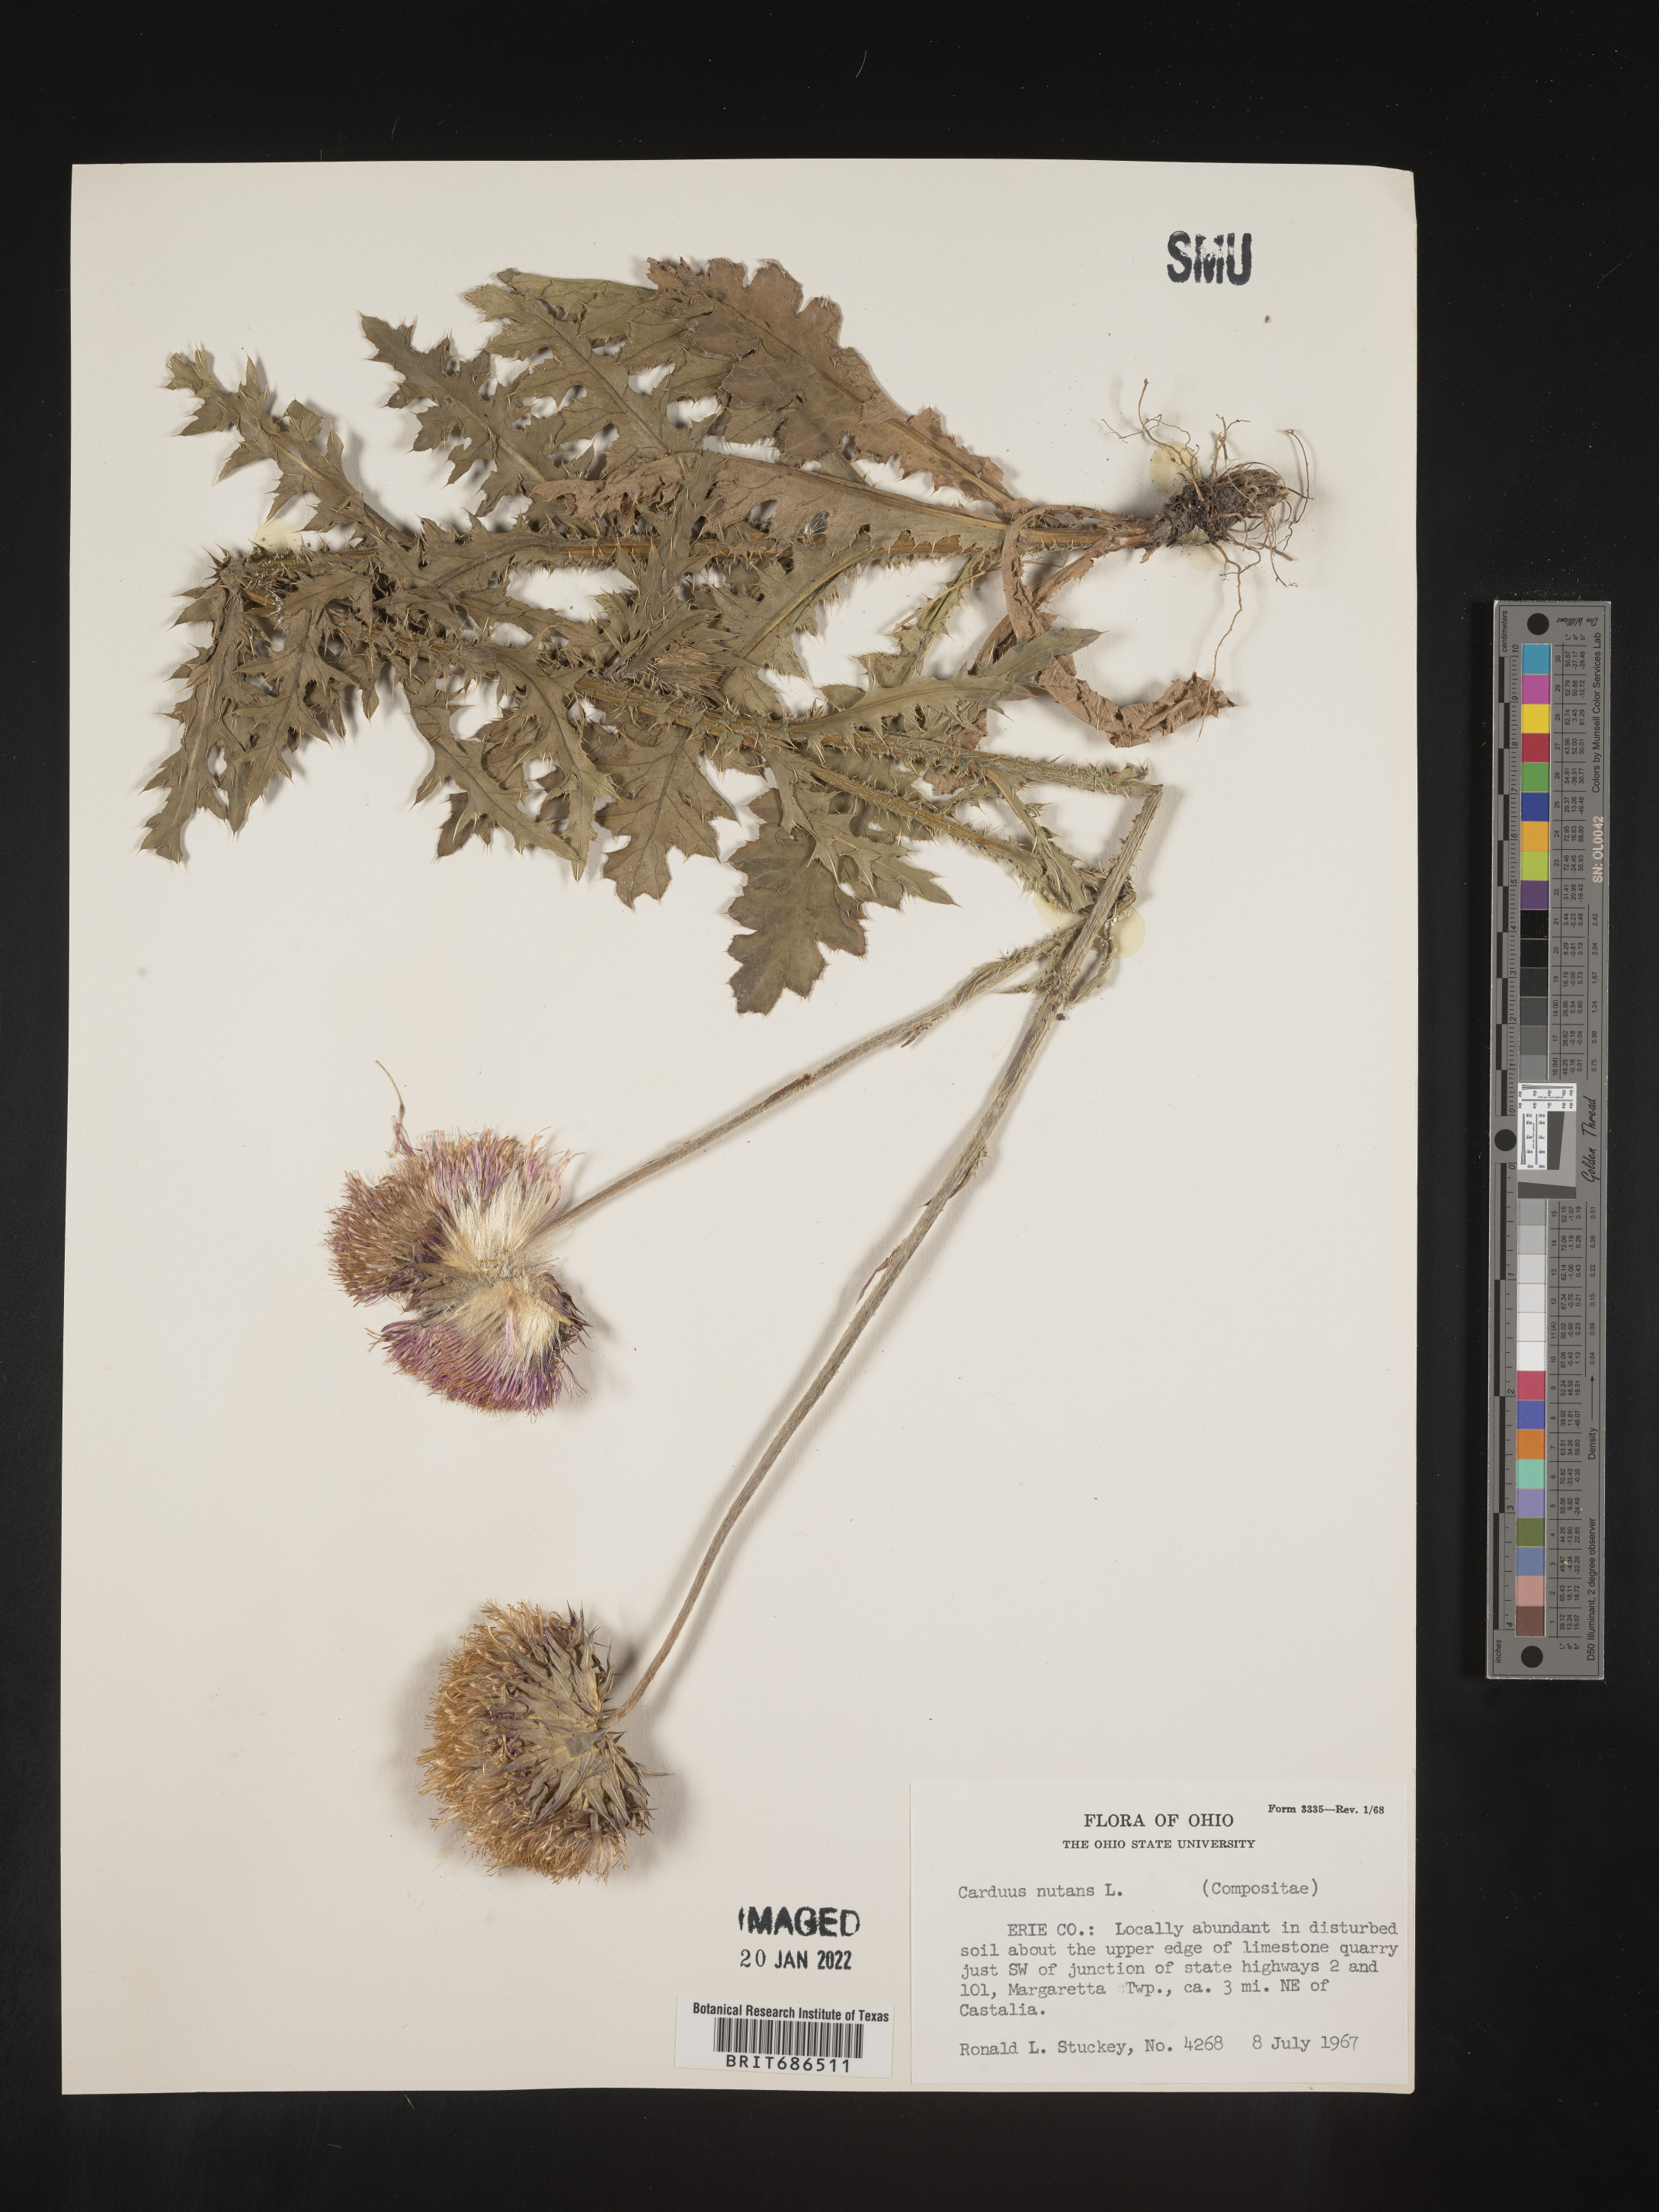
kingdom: Plantae
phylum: Tracheophyta
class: Magnoliopsida
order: Asterales
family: Asteraceae
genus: Carduus
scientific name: Carduus nutans
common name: Musk thistle
